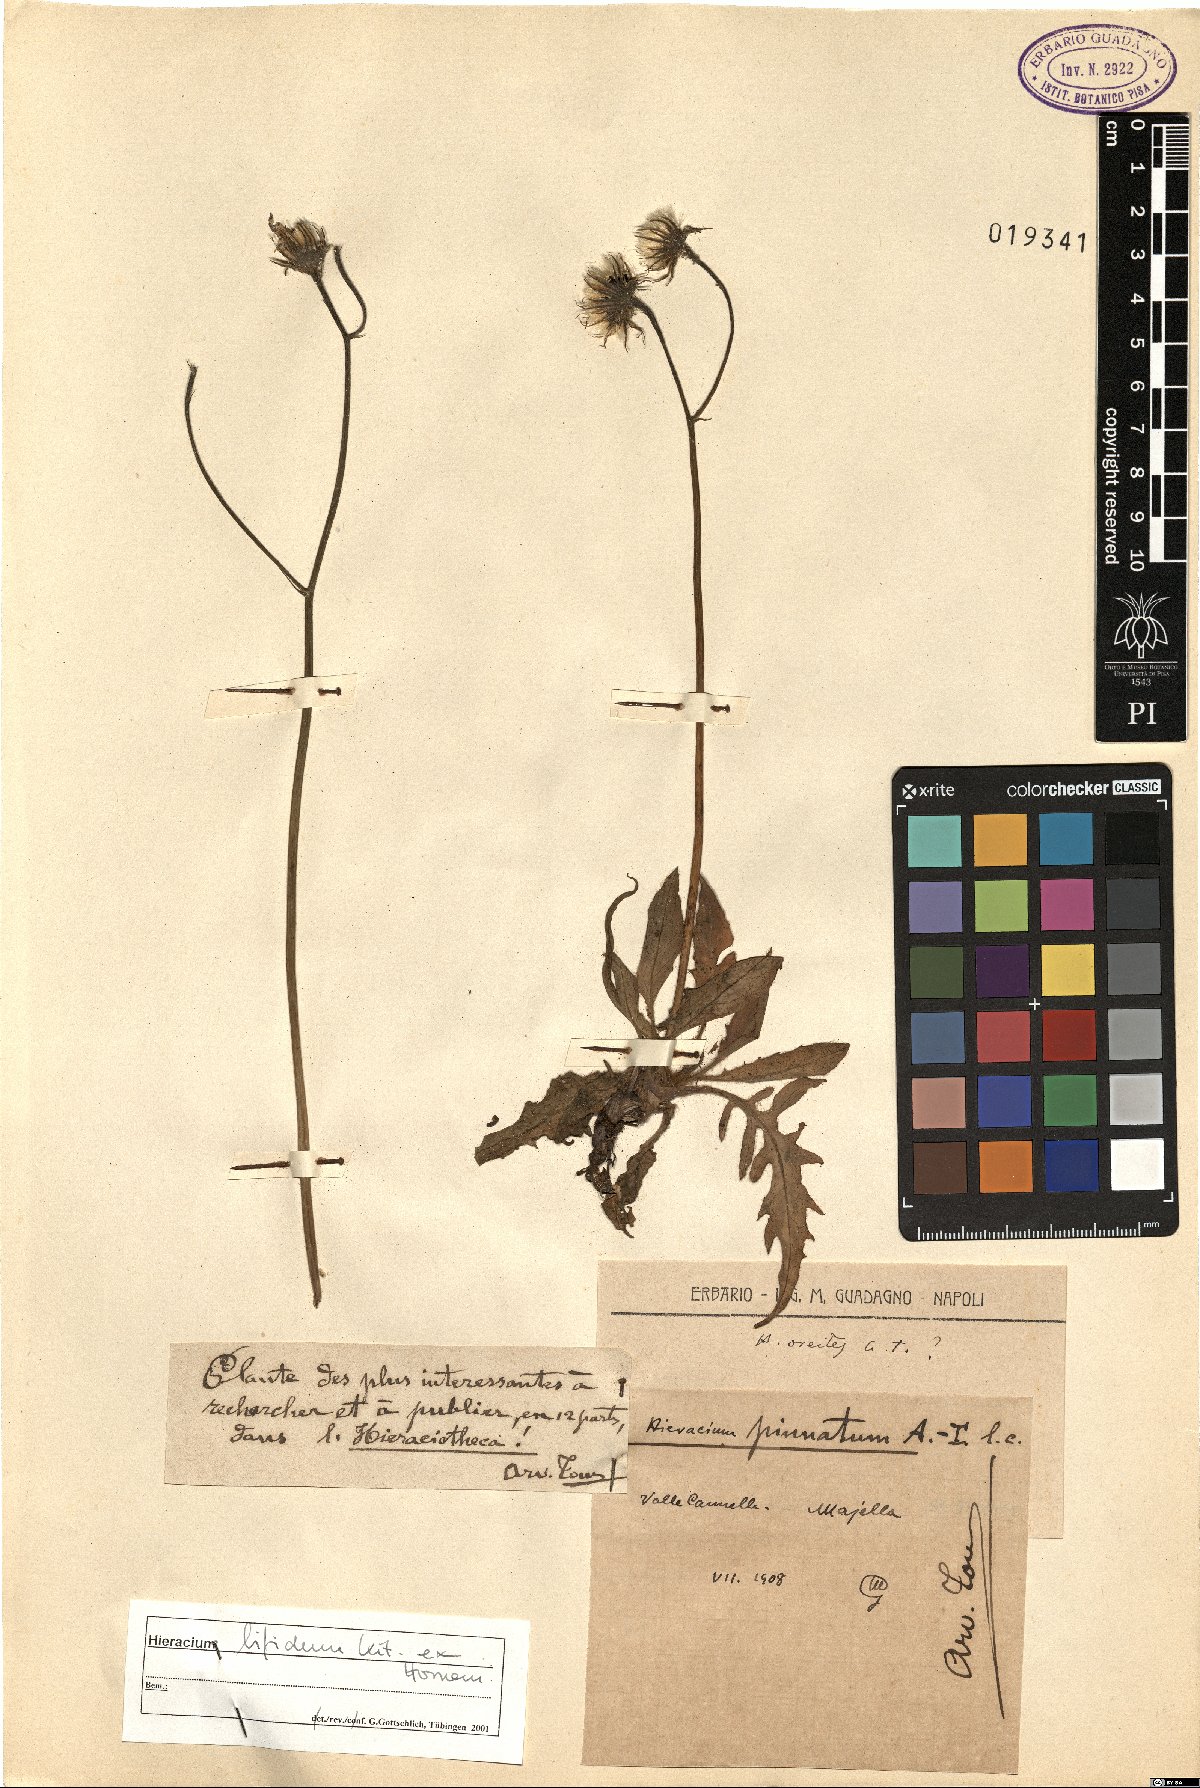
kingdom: Plantae
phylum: Tracheophyta
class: Magnoliopsida
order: Asterales
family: Asteraceae
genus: Hieracium
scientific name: Hieracium bifidum
